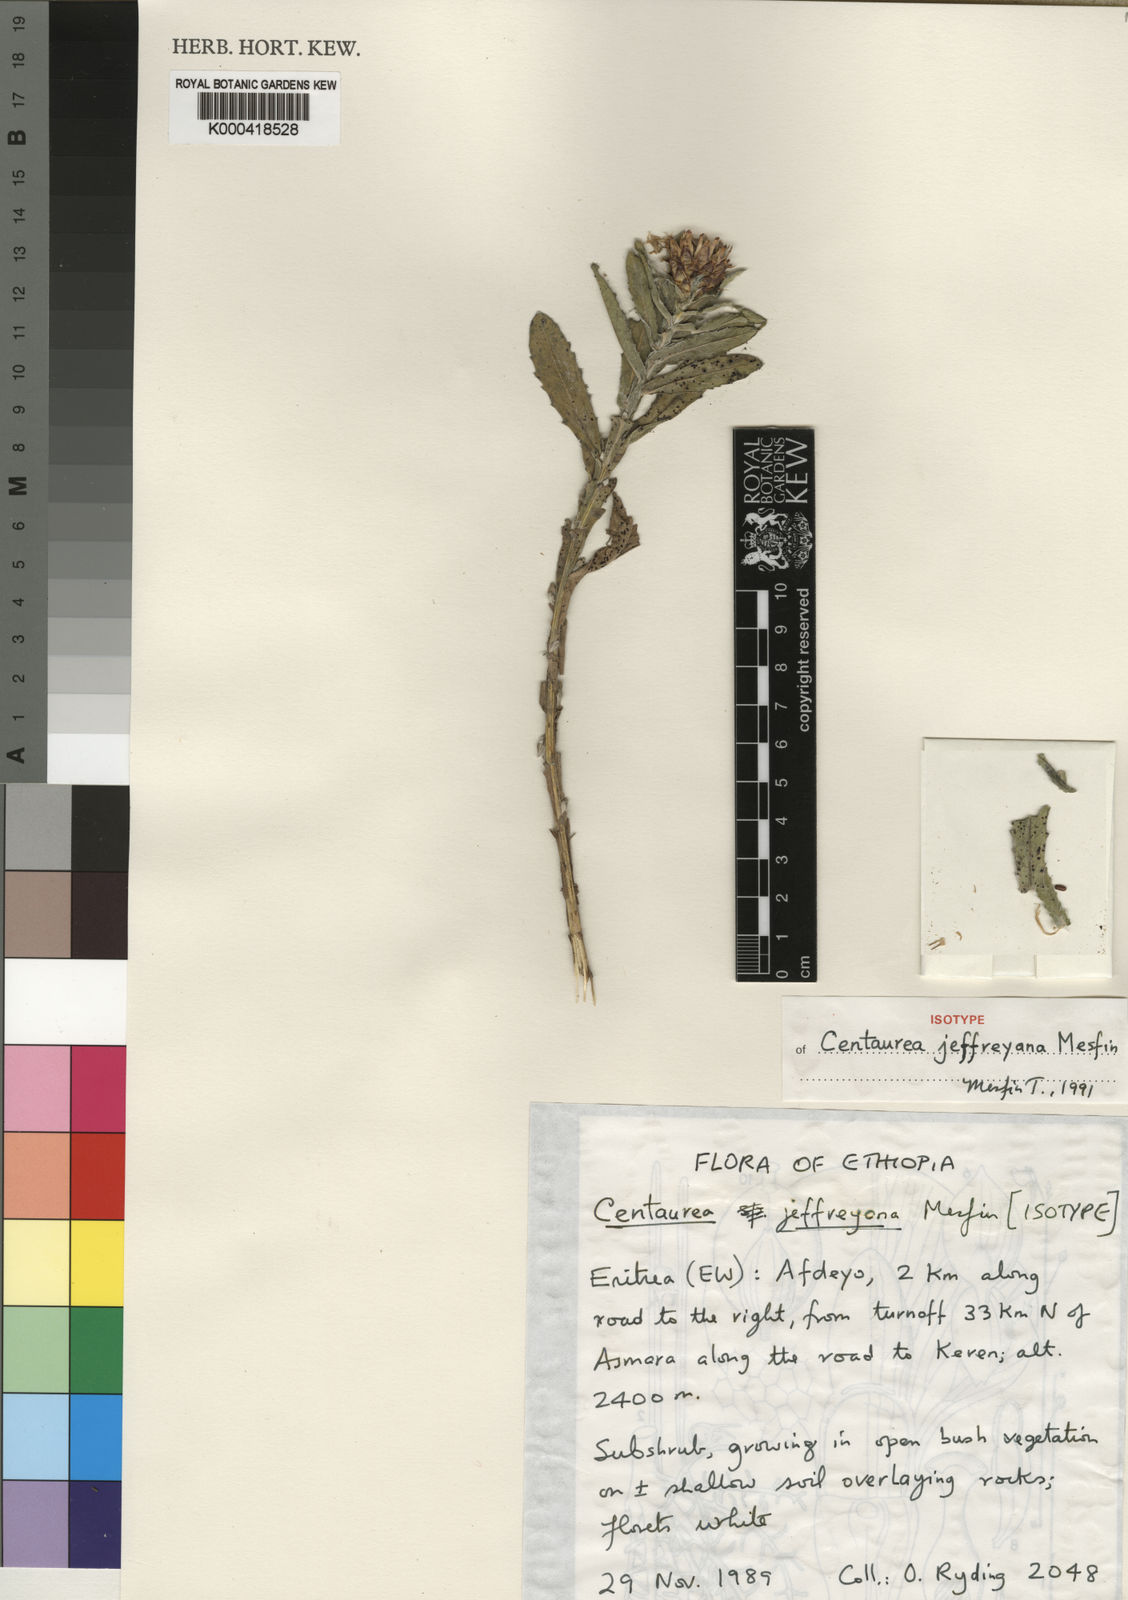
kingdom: Plantae
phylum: Tracheophyta
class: Magnoliopsida
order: Asterales
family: Asteraceae
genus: Centaurea
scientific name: Centaurea jeffreyana
